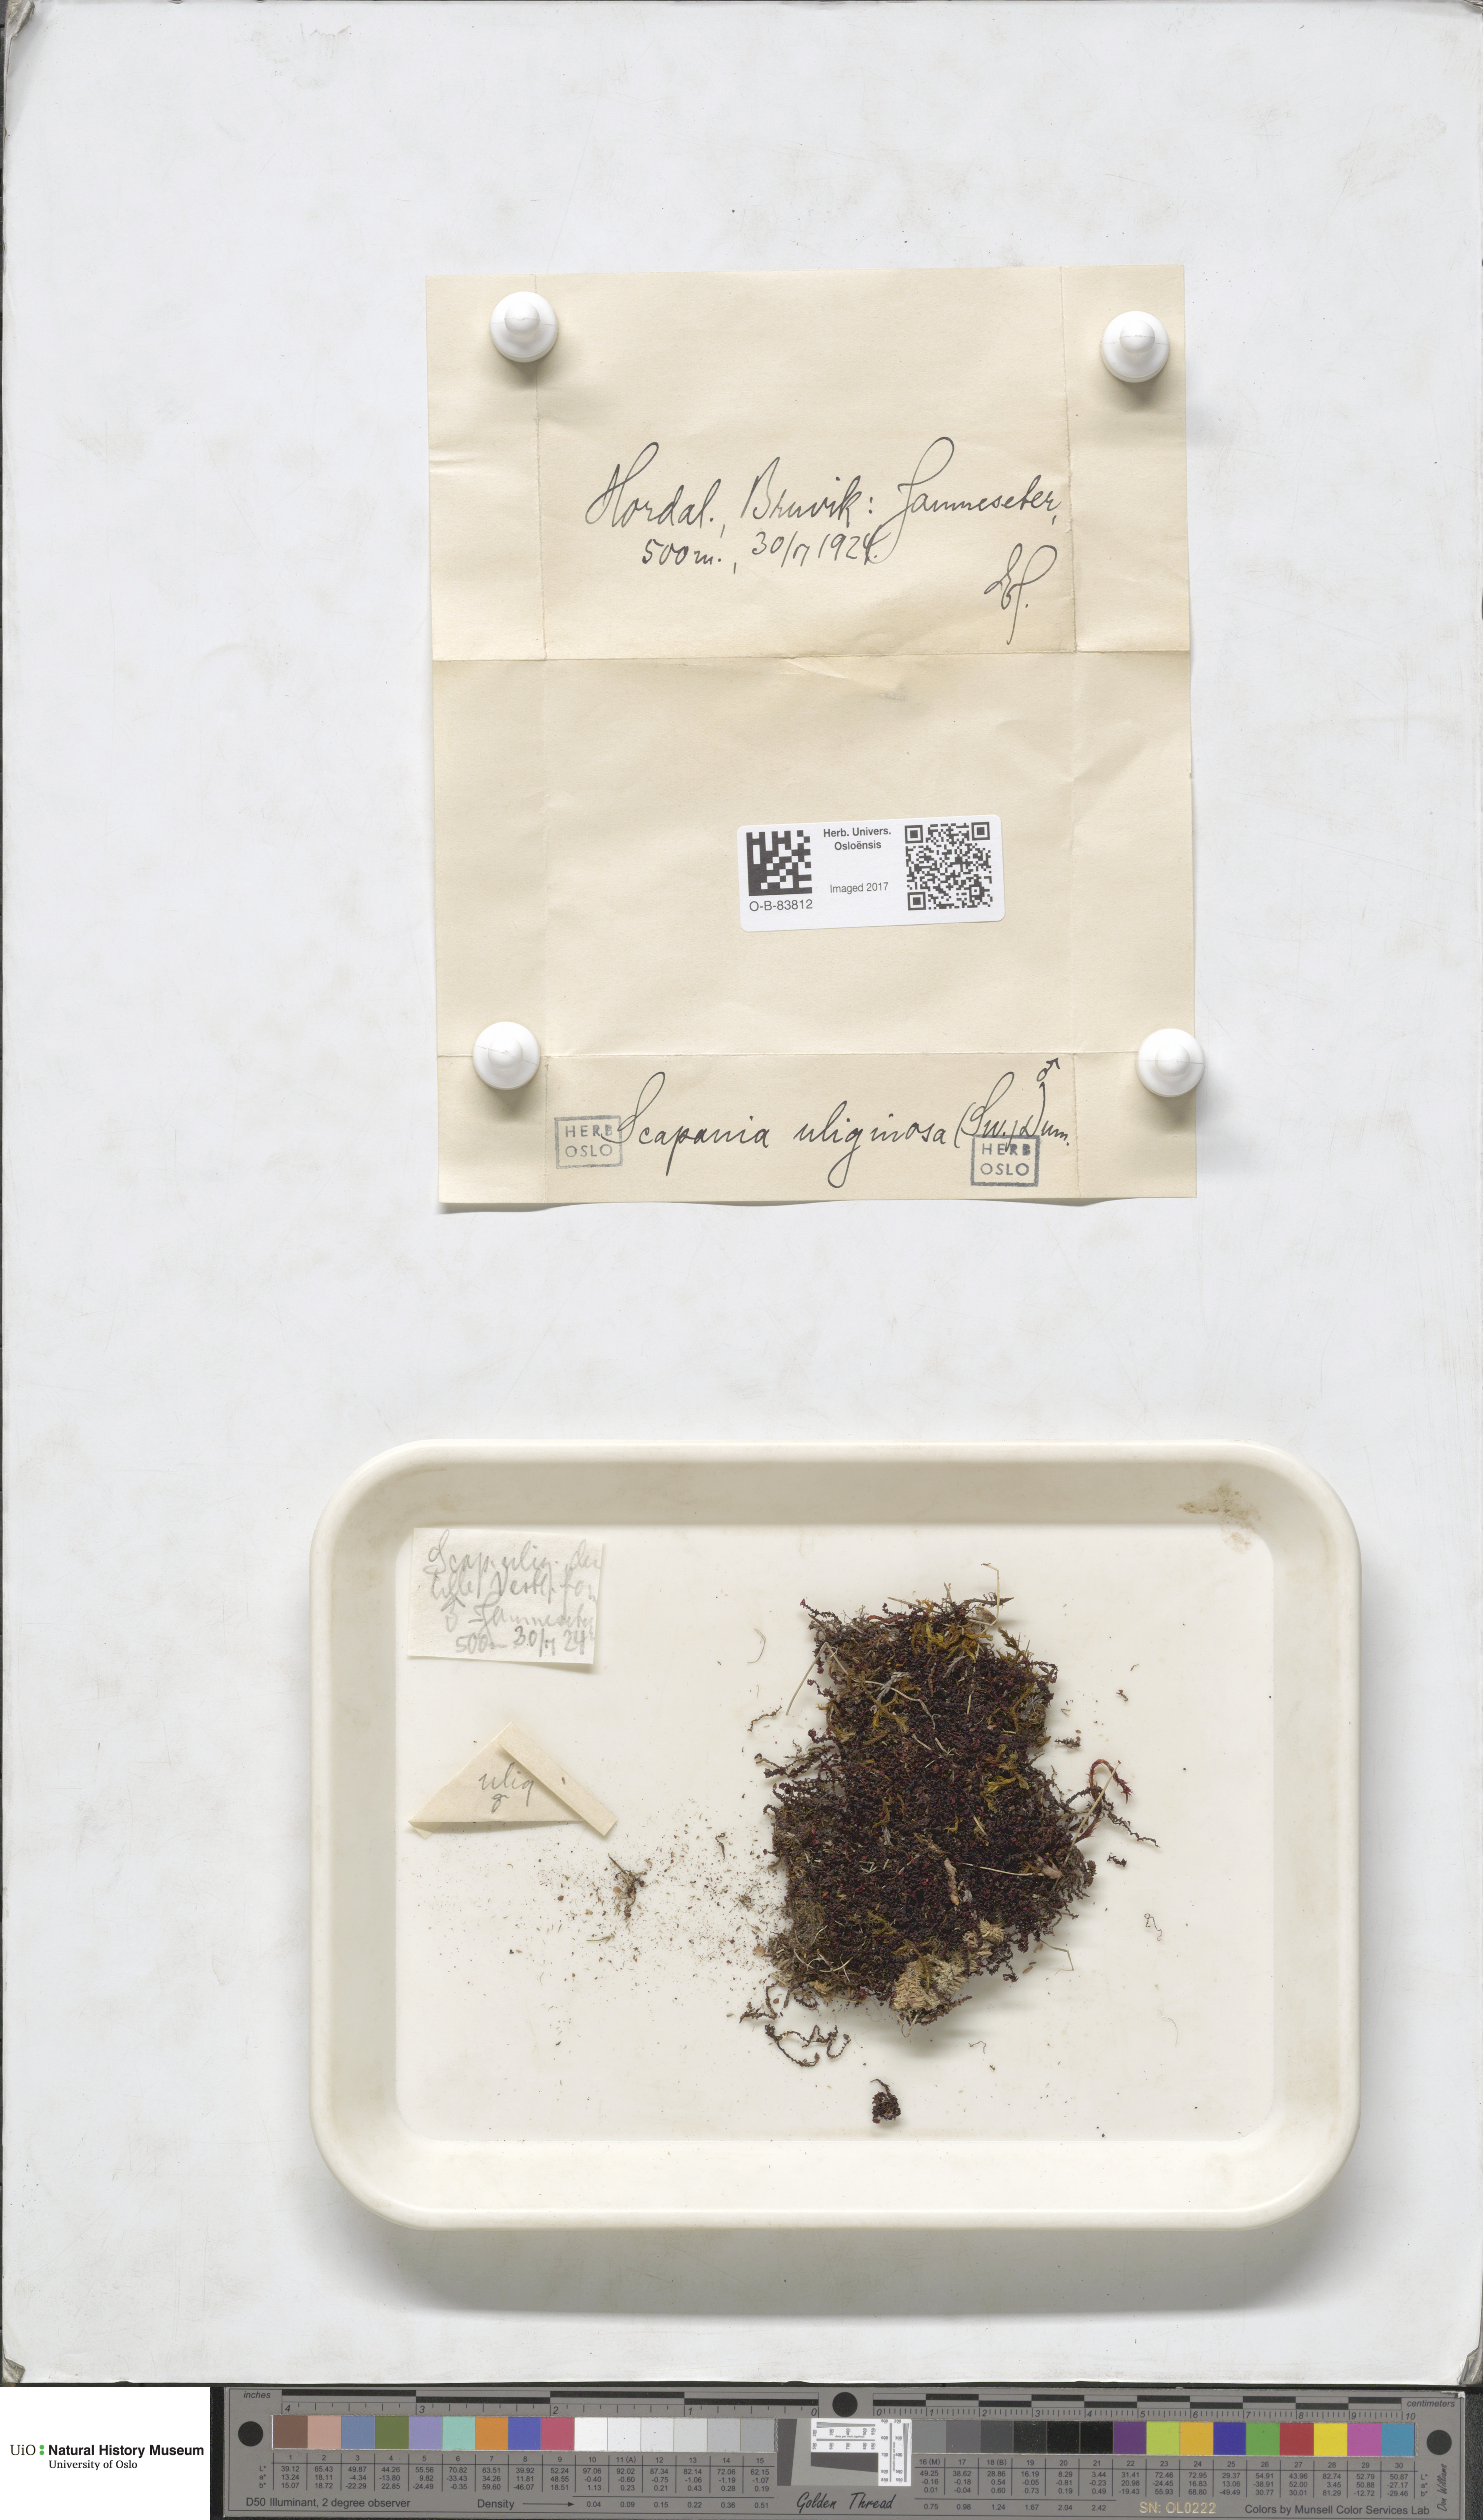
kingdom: Plantae
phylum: Marchantiophyta
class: Jungermanniopsida
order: Jungermanniales
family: Scapaniaceae
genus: Scapania
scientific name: Scapania uliginosa
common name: Marsh earwort
